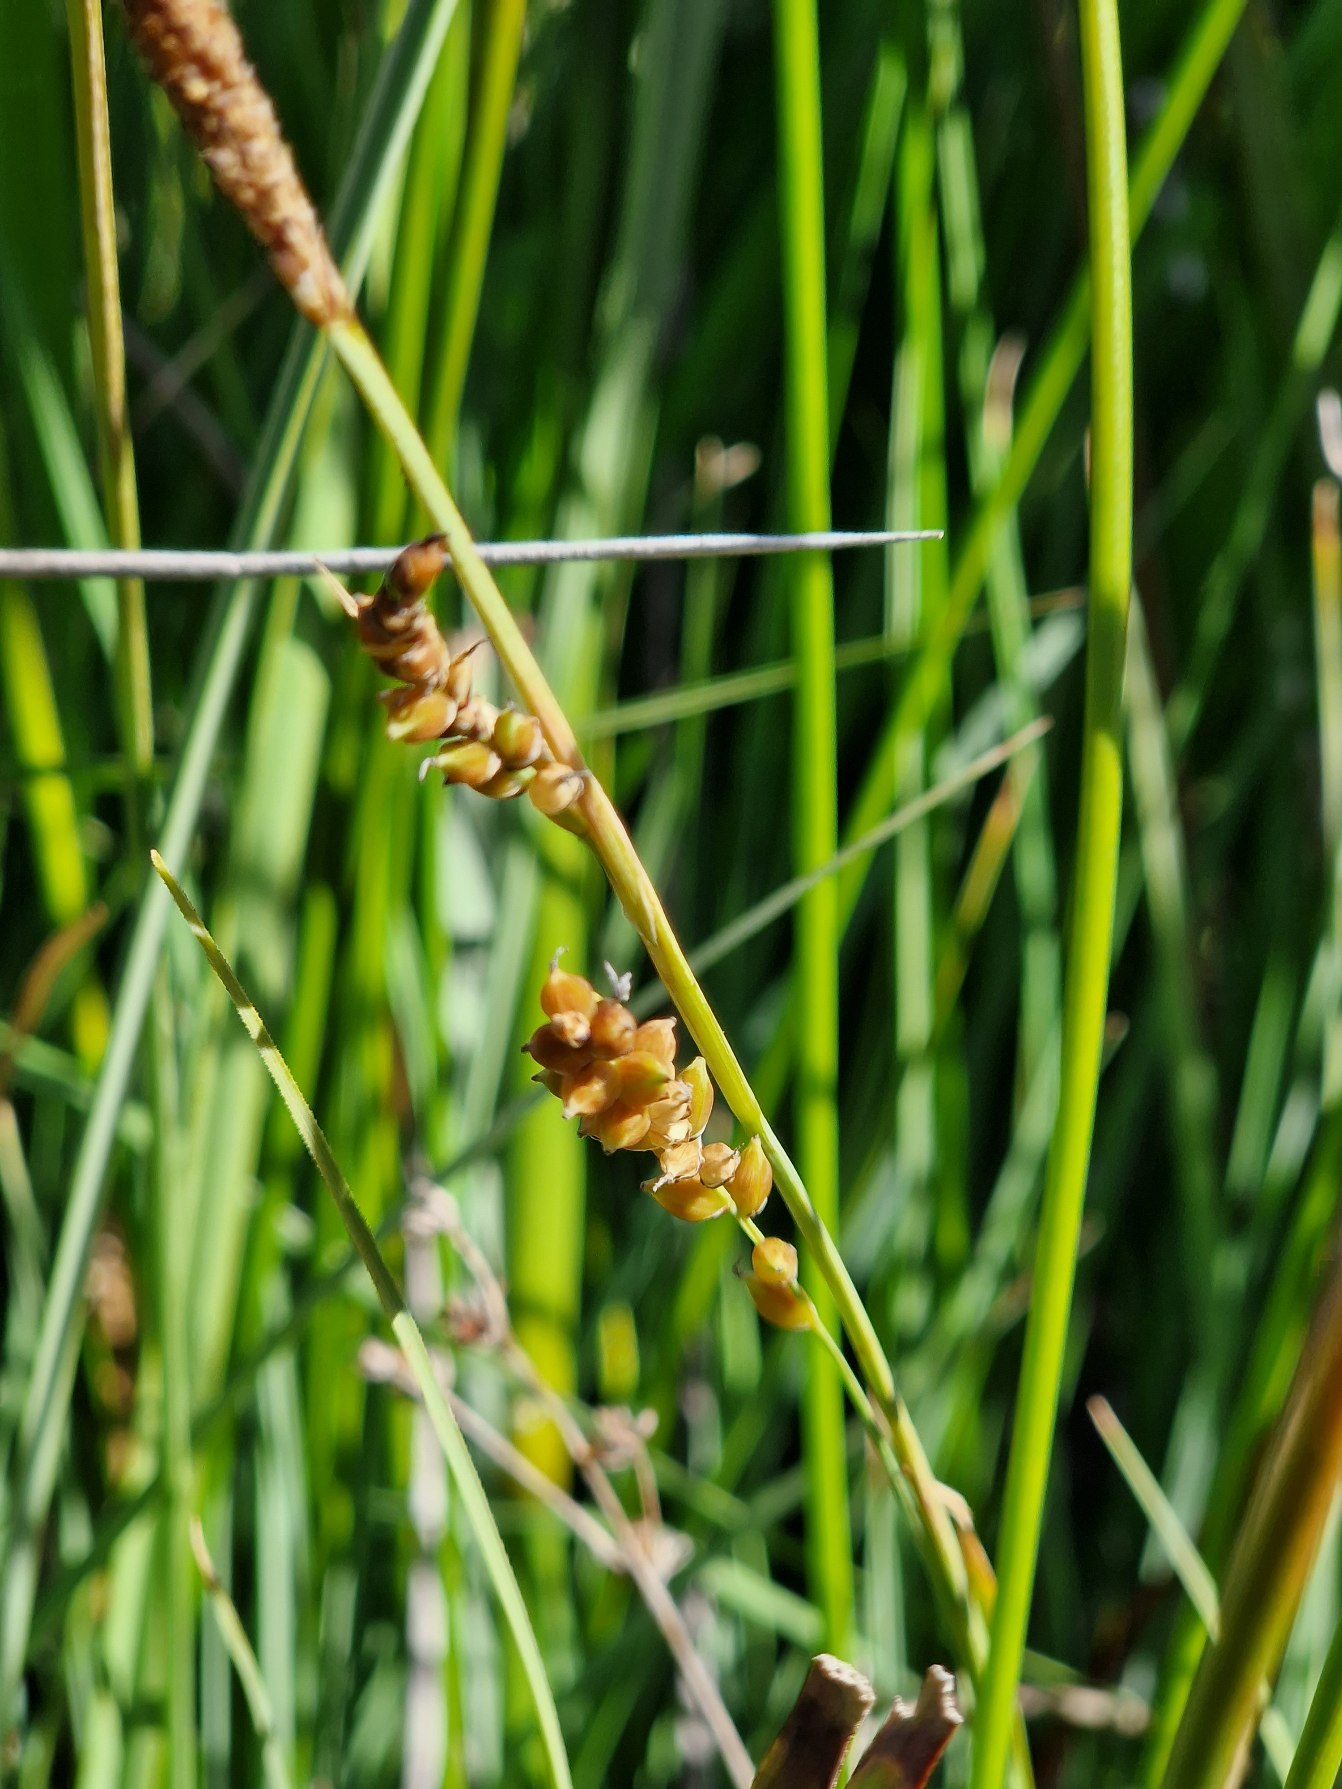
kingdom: Plantae
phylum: Tracheophyta
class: Liliopsida
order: Poales
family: Cyperaceae
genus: Carex
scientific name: Carex panicea
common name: Hirse-star
